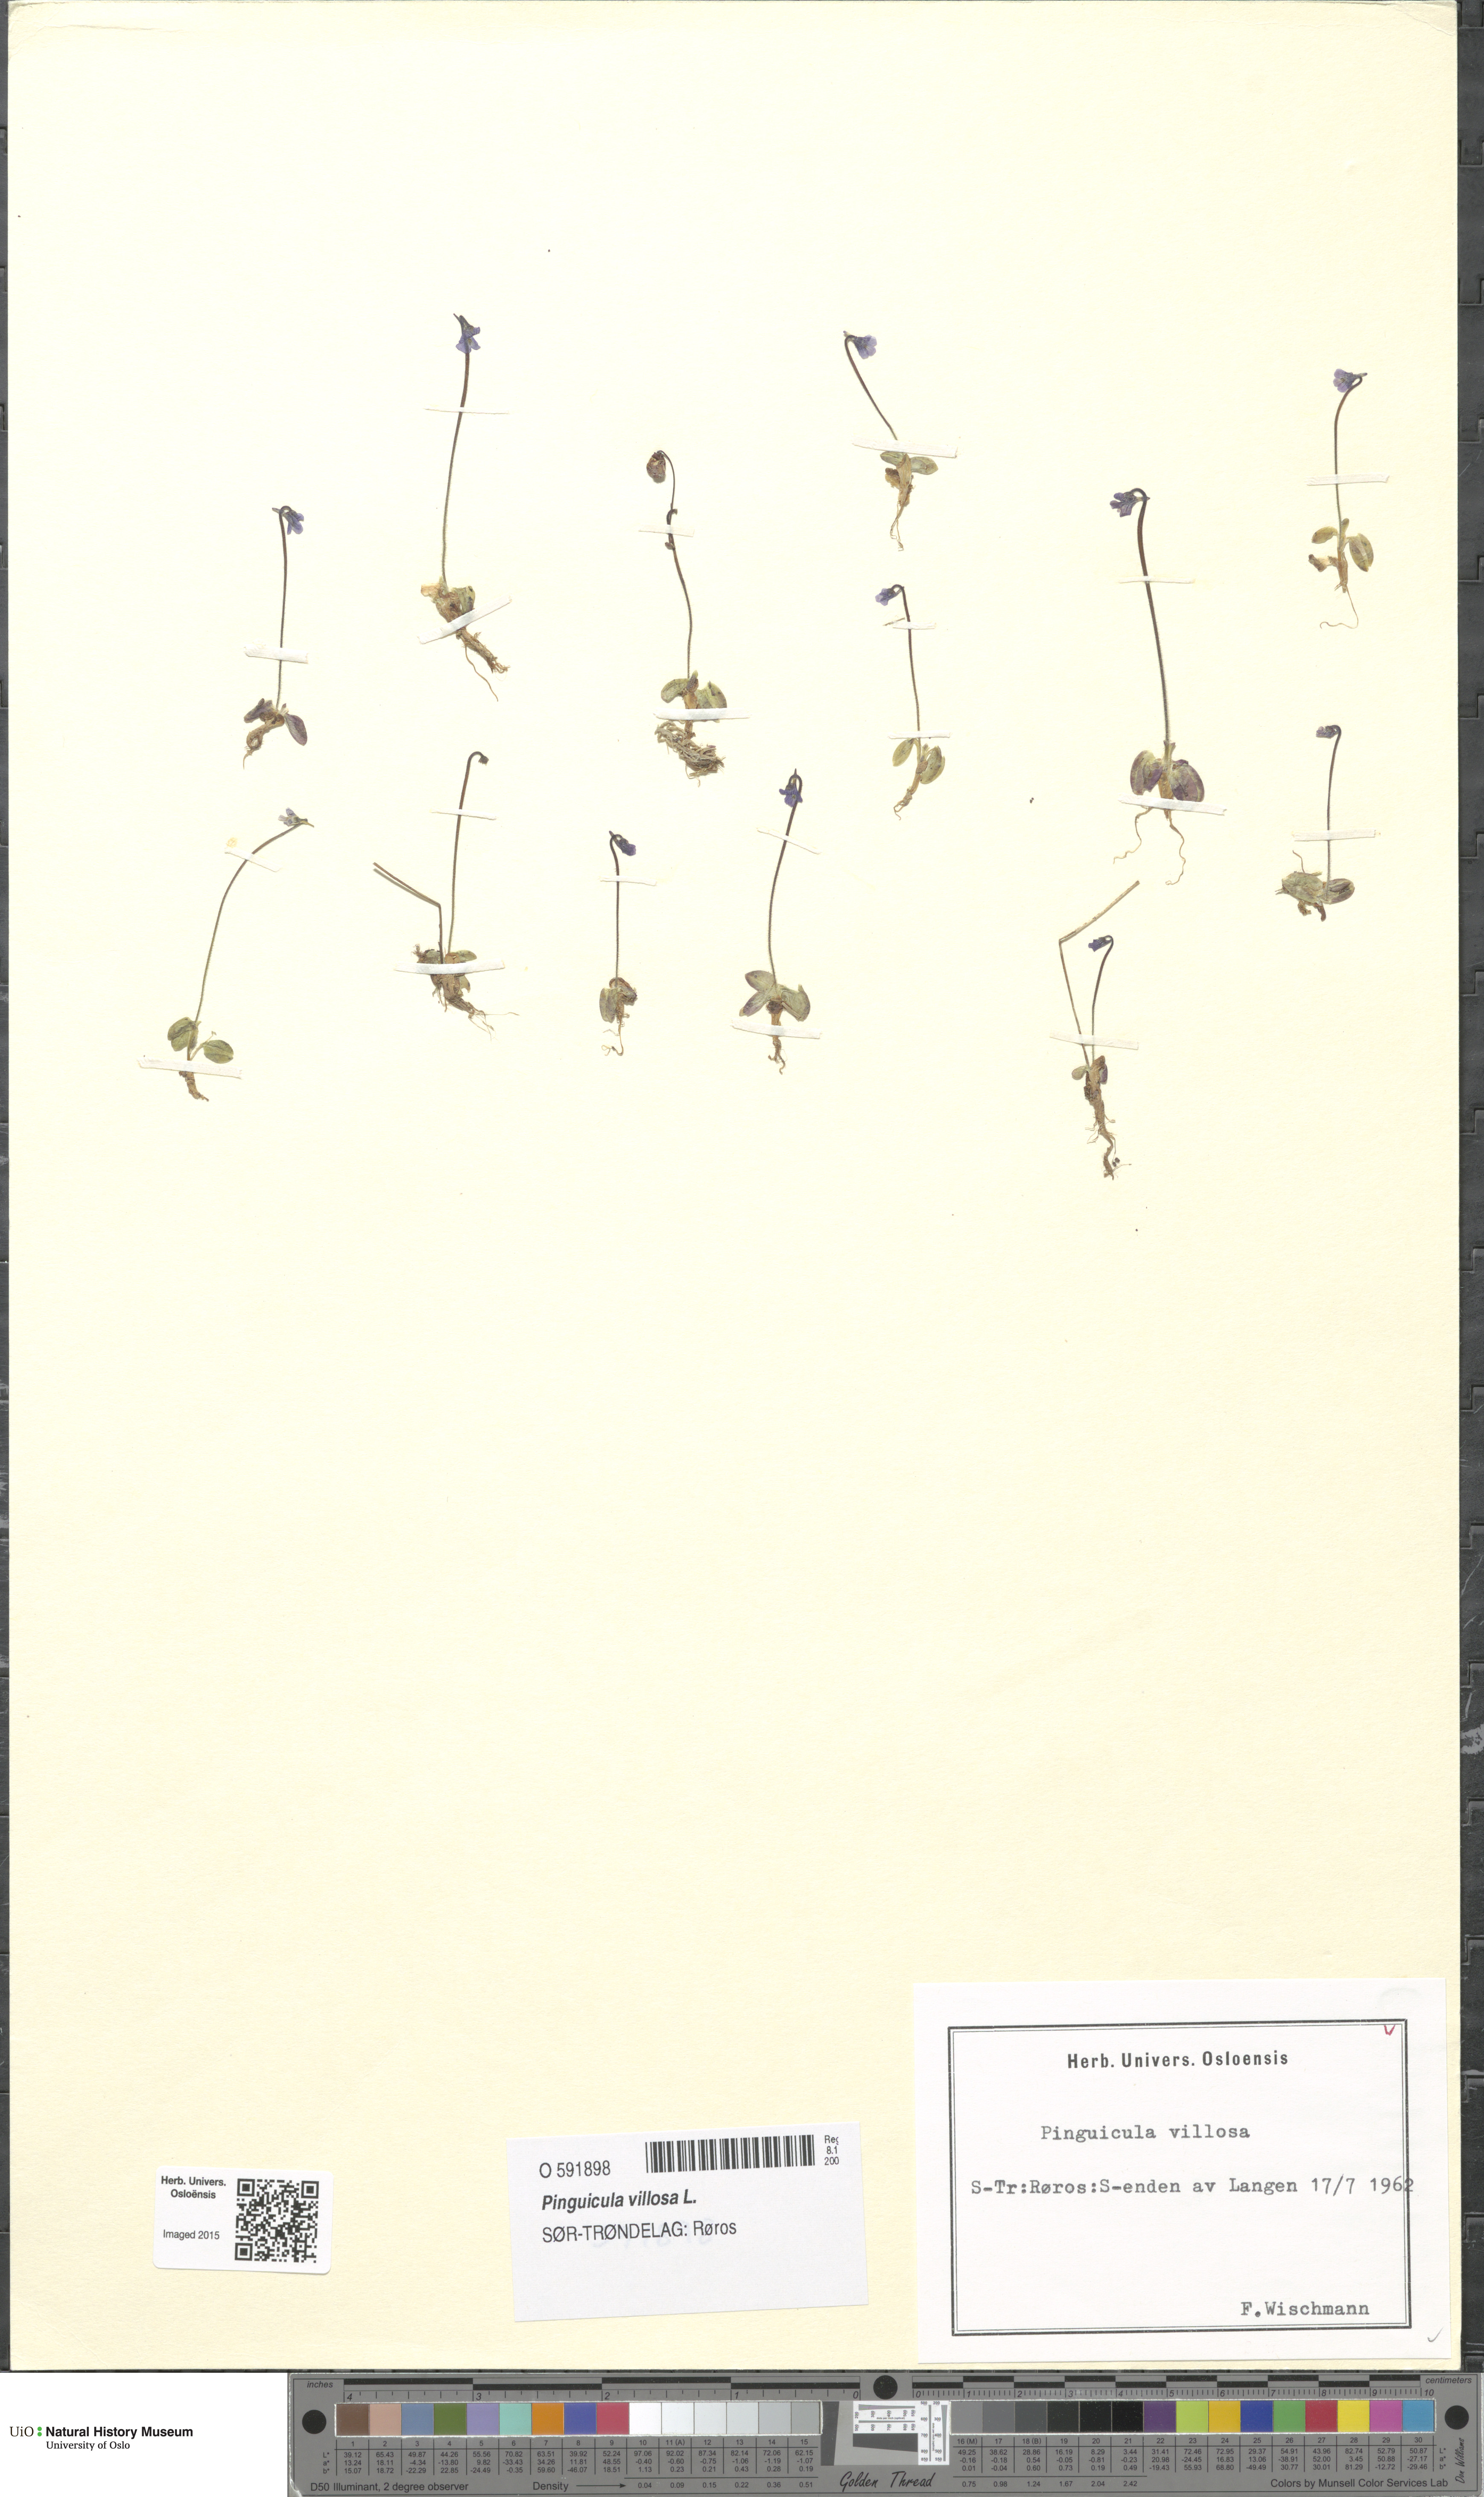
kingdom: Plantae
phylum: Tracheophyta
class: Magnoliopsida
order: Lamiales
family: Lentibulariaceae
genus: Pinguicula
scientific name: Pinguicula villosa
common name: Hairy butterwort
